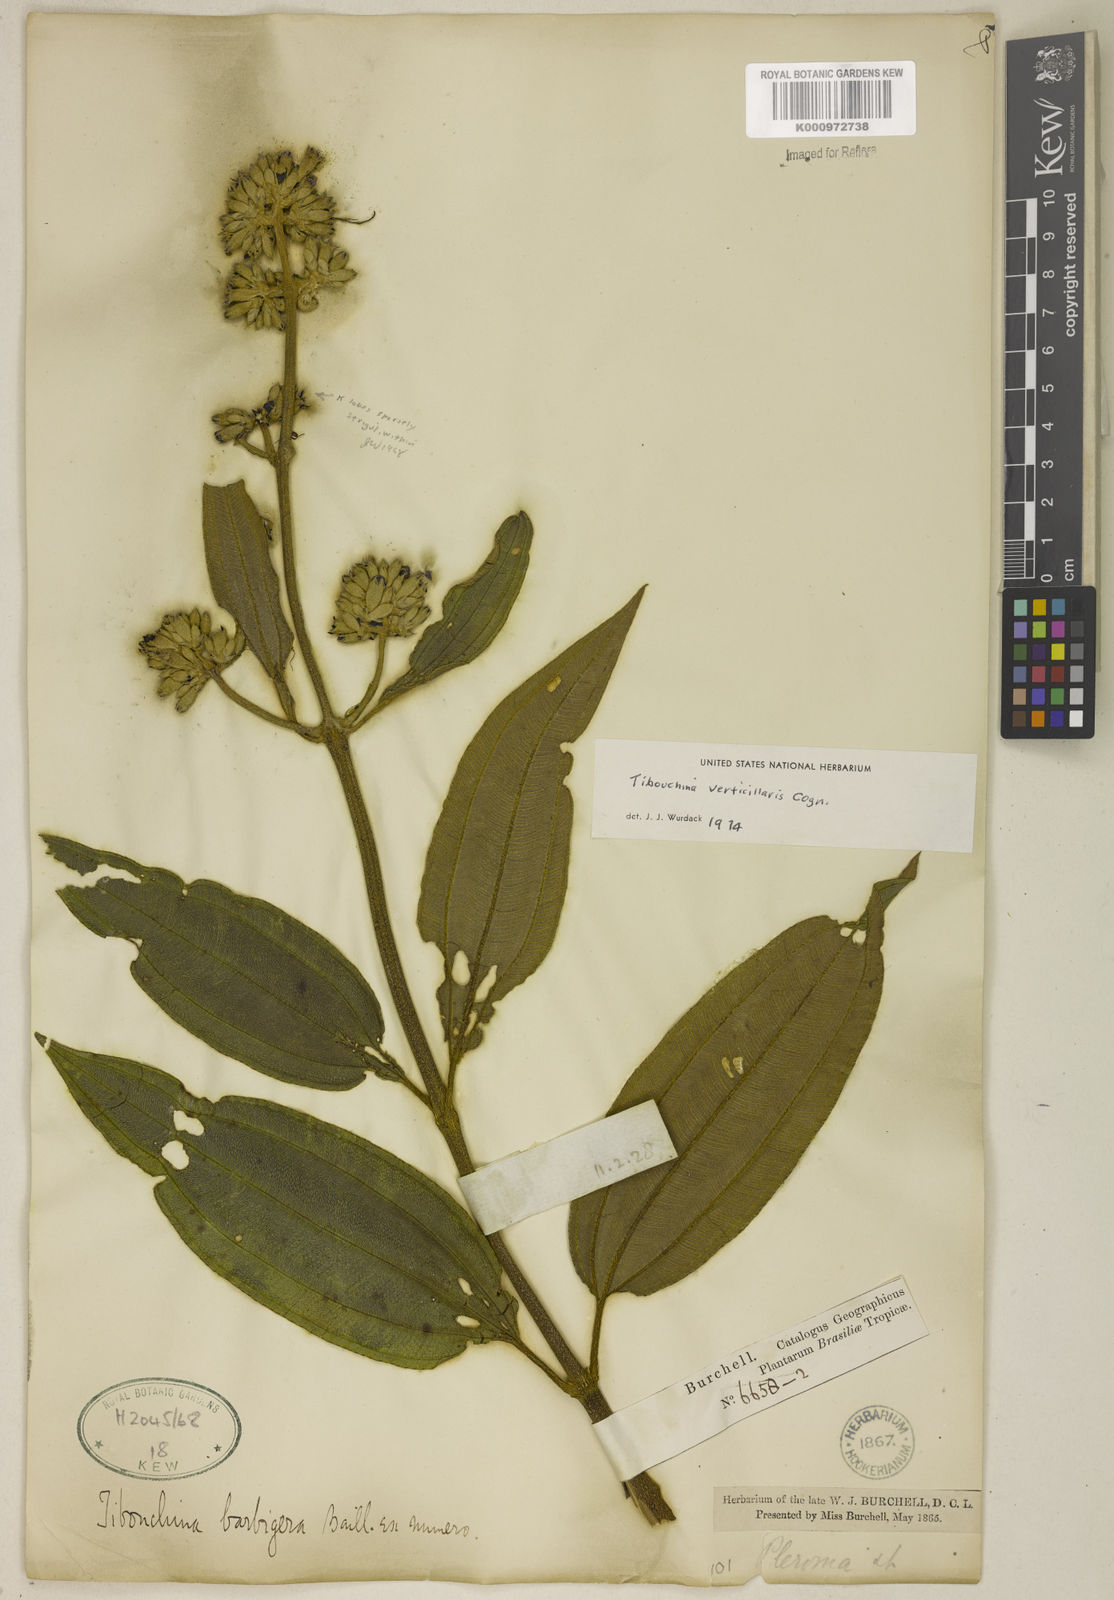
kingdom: Plantae
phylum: Tracheophyta
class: Magnoliopsida
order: Myrtales
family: Melastomataceae
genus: Tibouchina
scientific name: Tibouchina verticillaris
